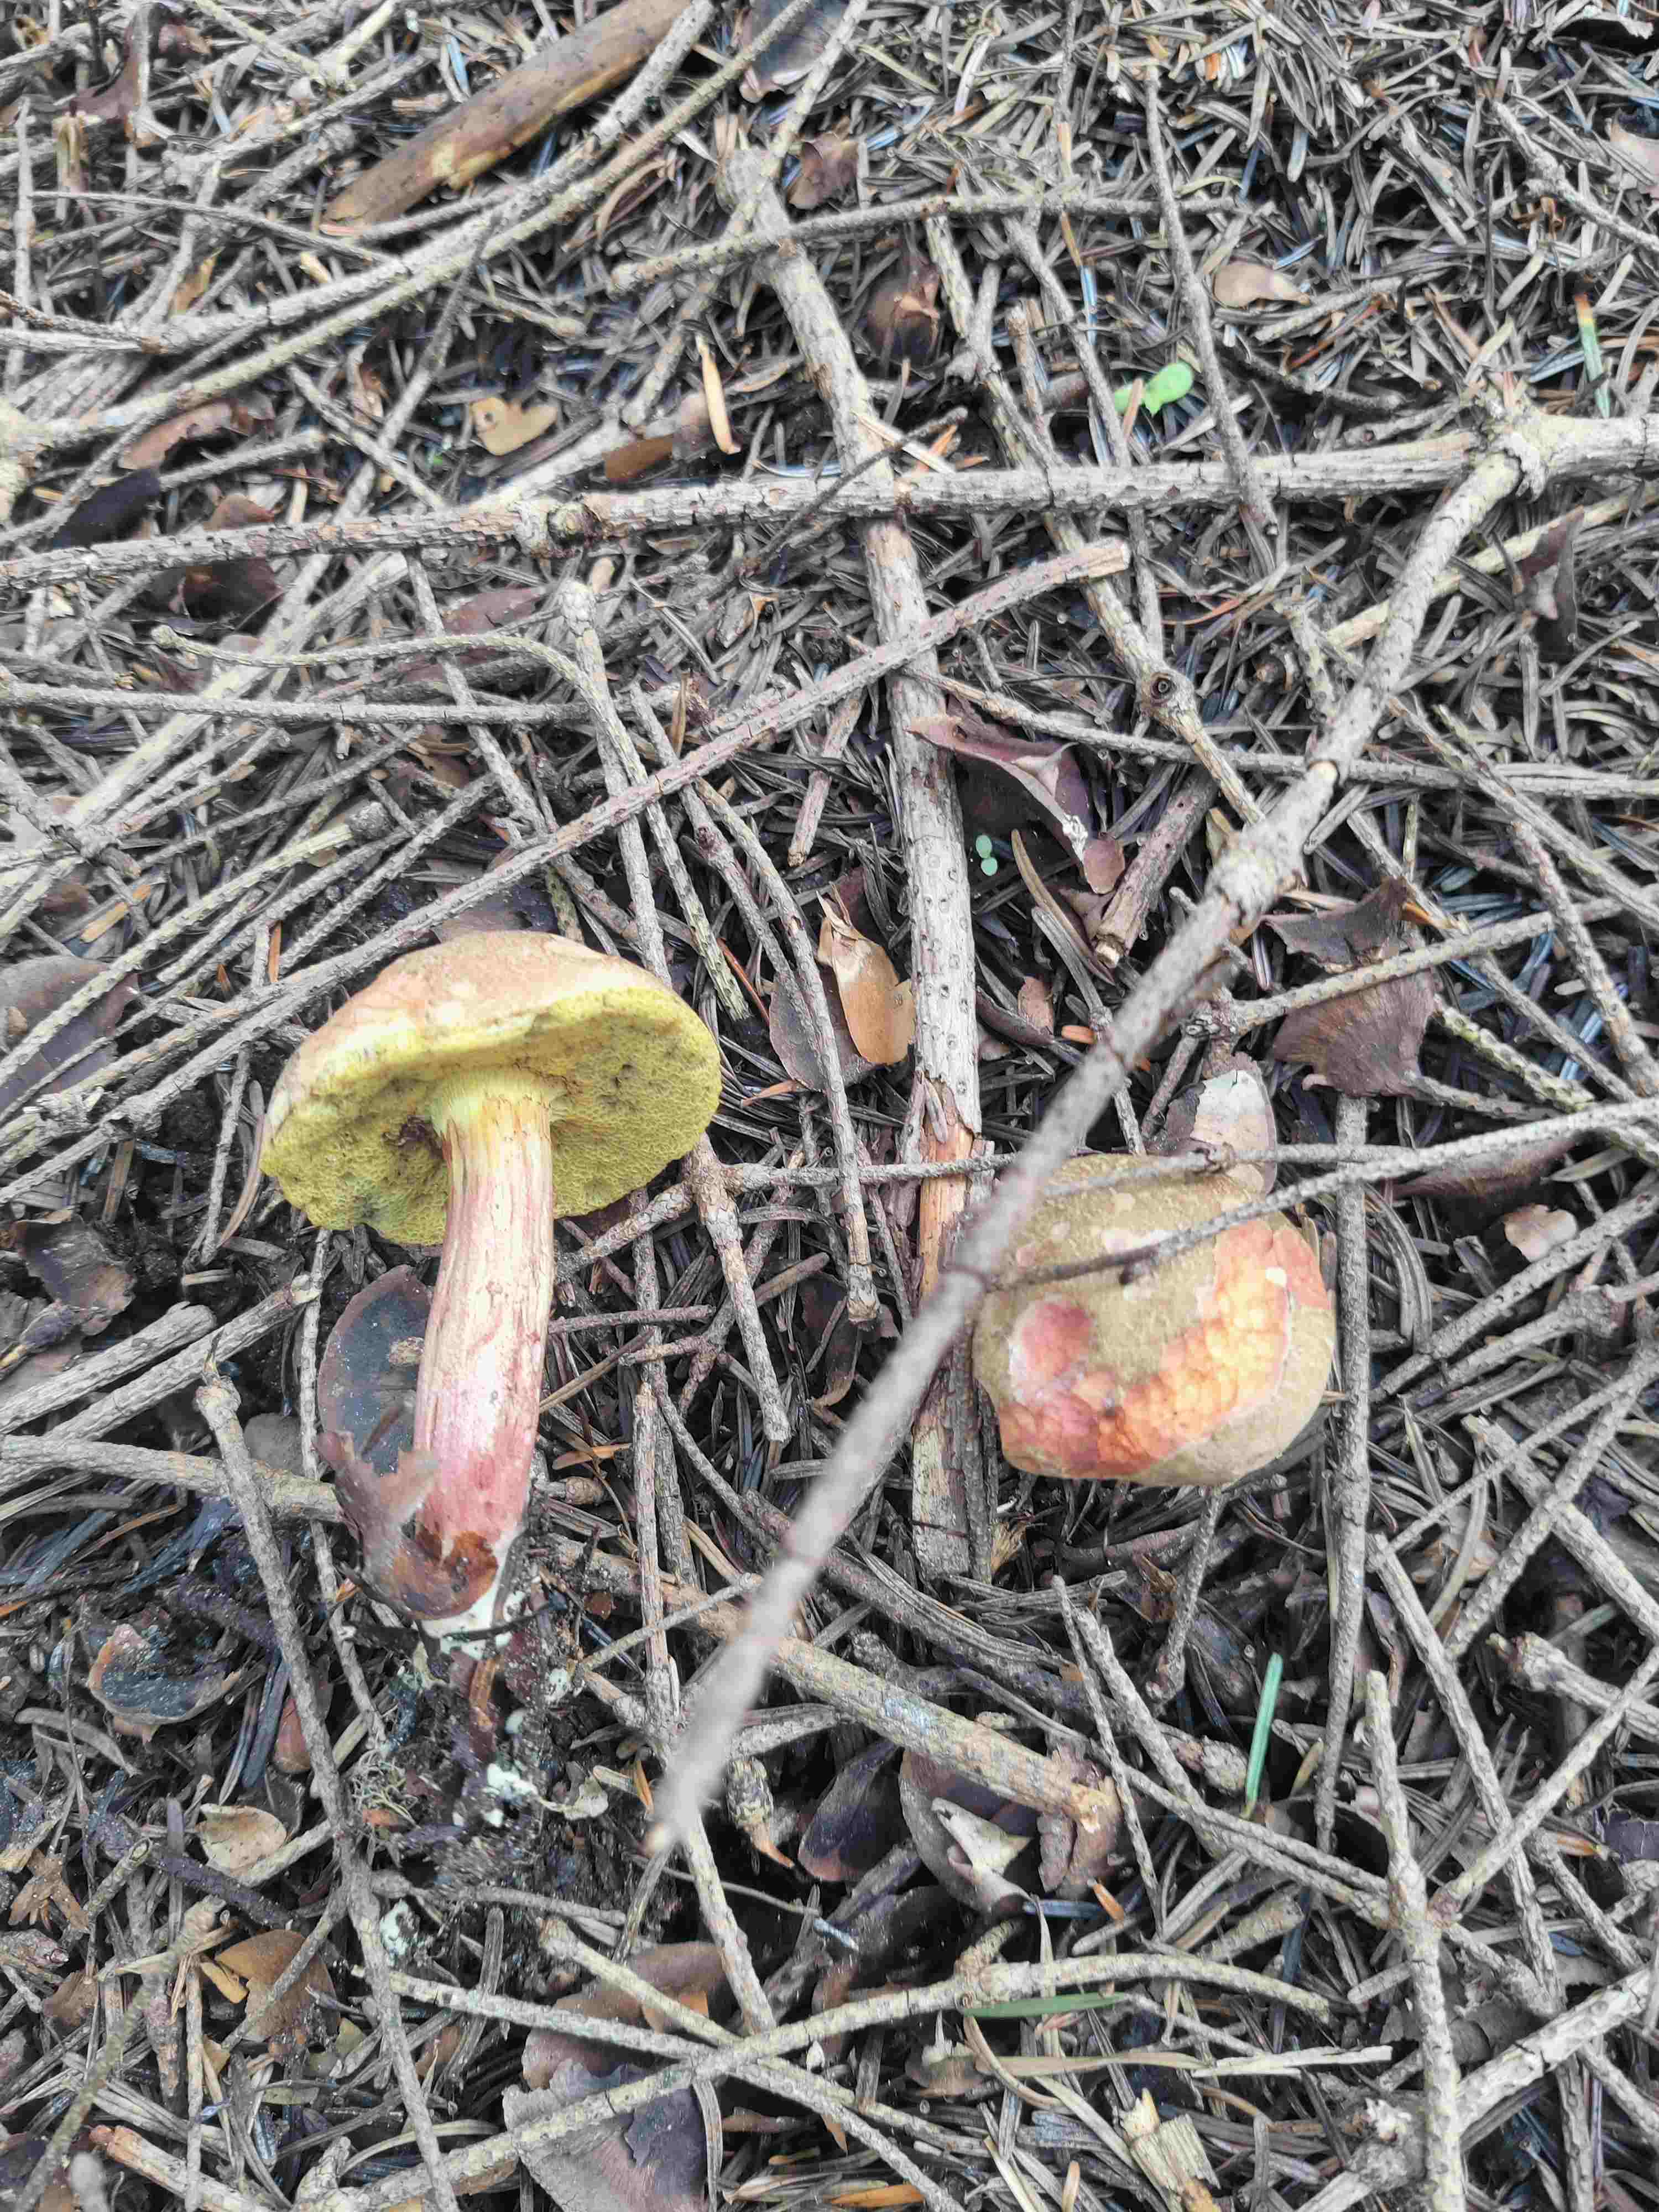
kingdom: Fungi
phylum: Basidiomycota
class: Agaricomycetes
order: Boletales
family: Boletaceae
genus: Xerocomellus
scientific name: Xerocomellus
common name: dværgrørhat
